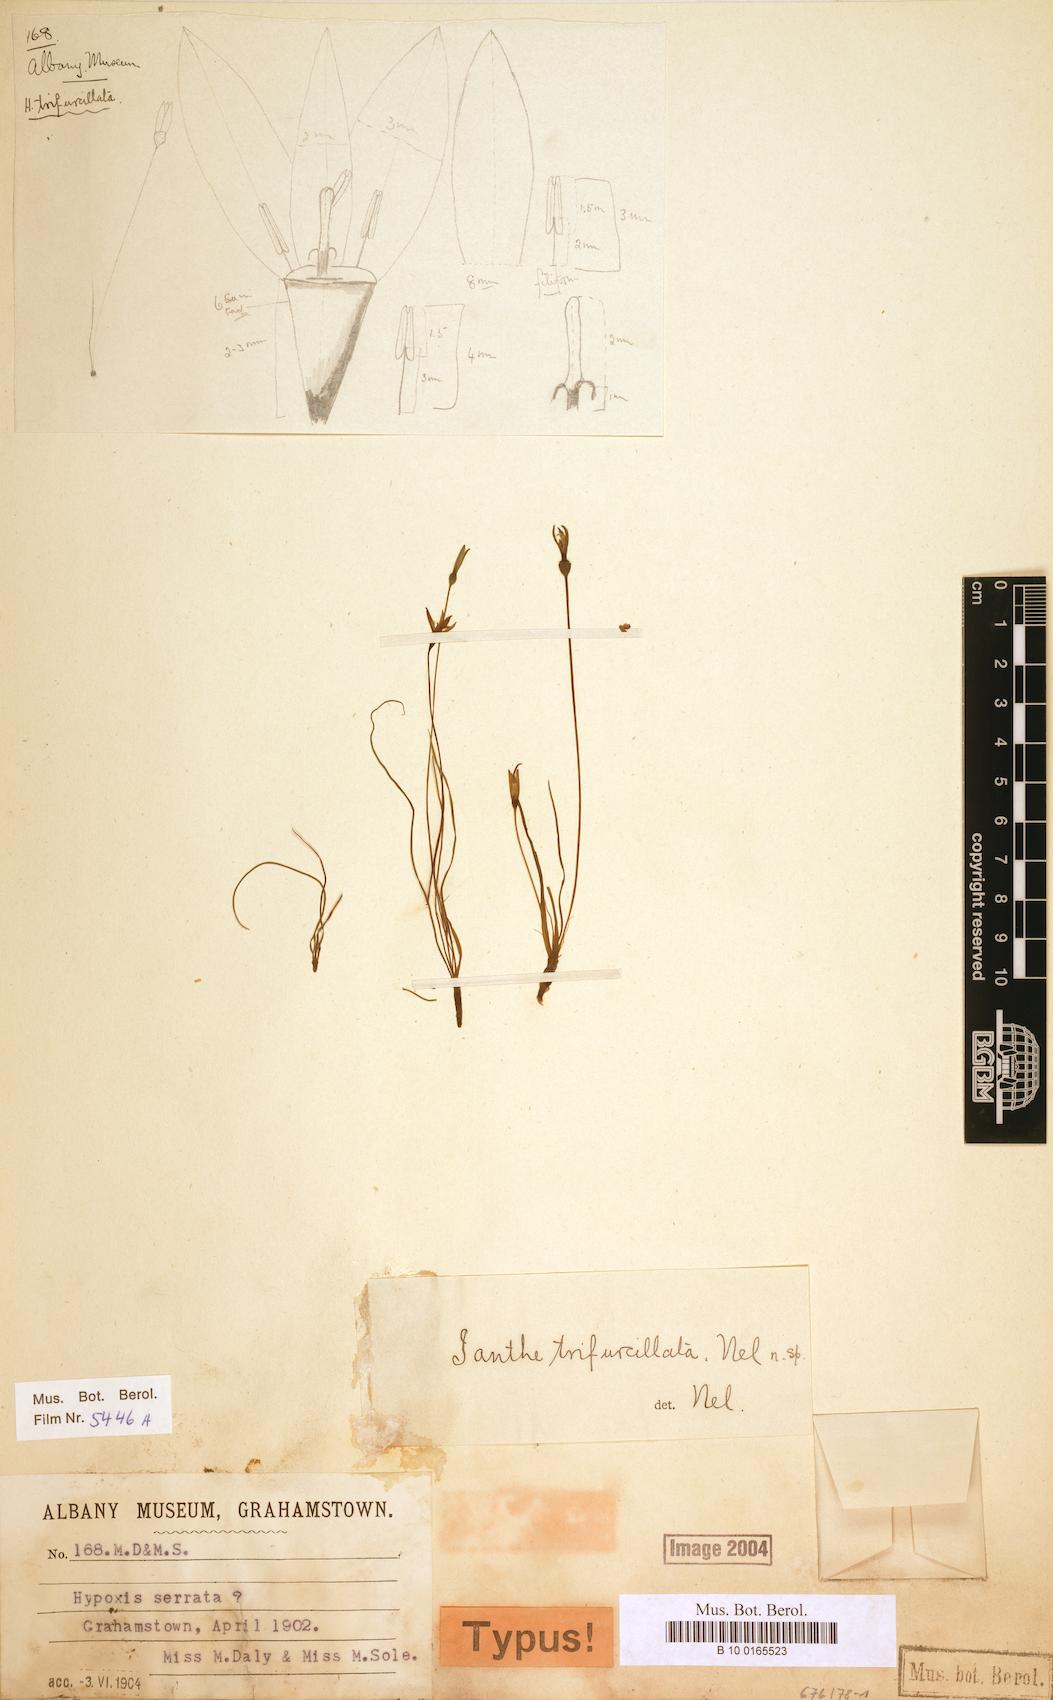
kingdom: Plantae
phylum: Tracheophyta
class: Liliopsida
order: Asparagales
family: Hypoxidaceae
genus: Pauridia
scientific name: Pauridia trifurcillata
